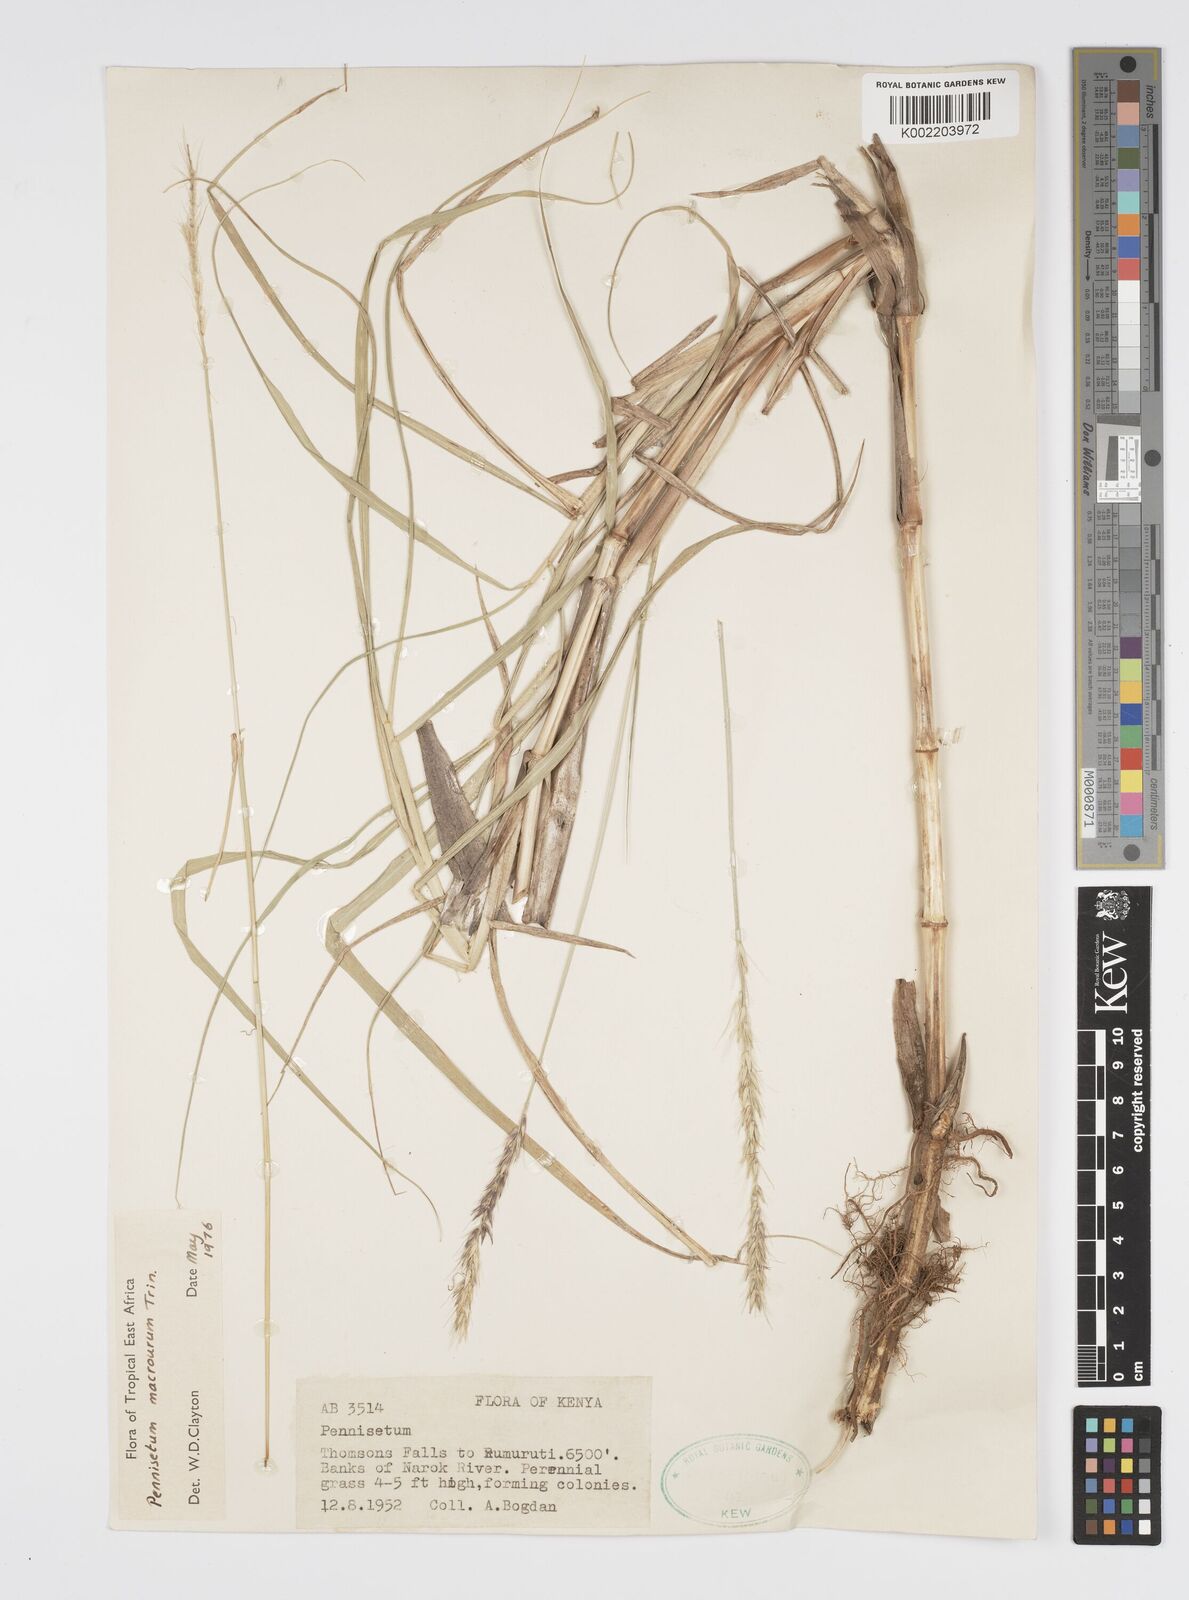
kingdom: Plantae
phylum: Tracheophyta
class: Liliopsida
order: Poales
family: Poaceae
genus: Cenchrus
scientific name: Cenchrus caudatus
